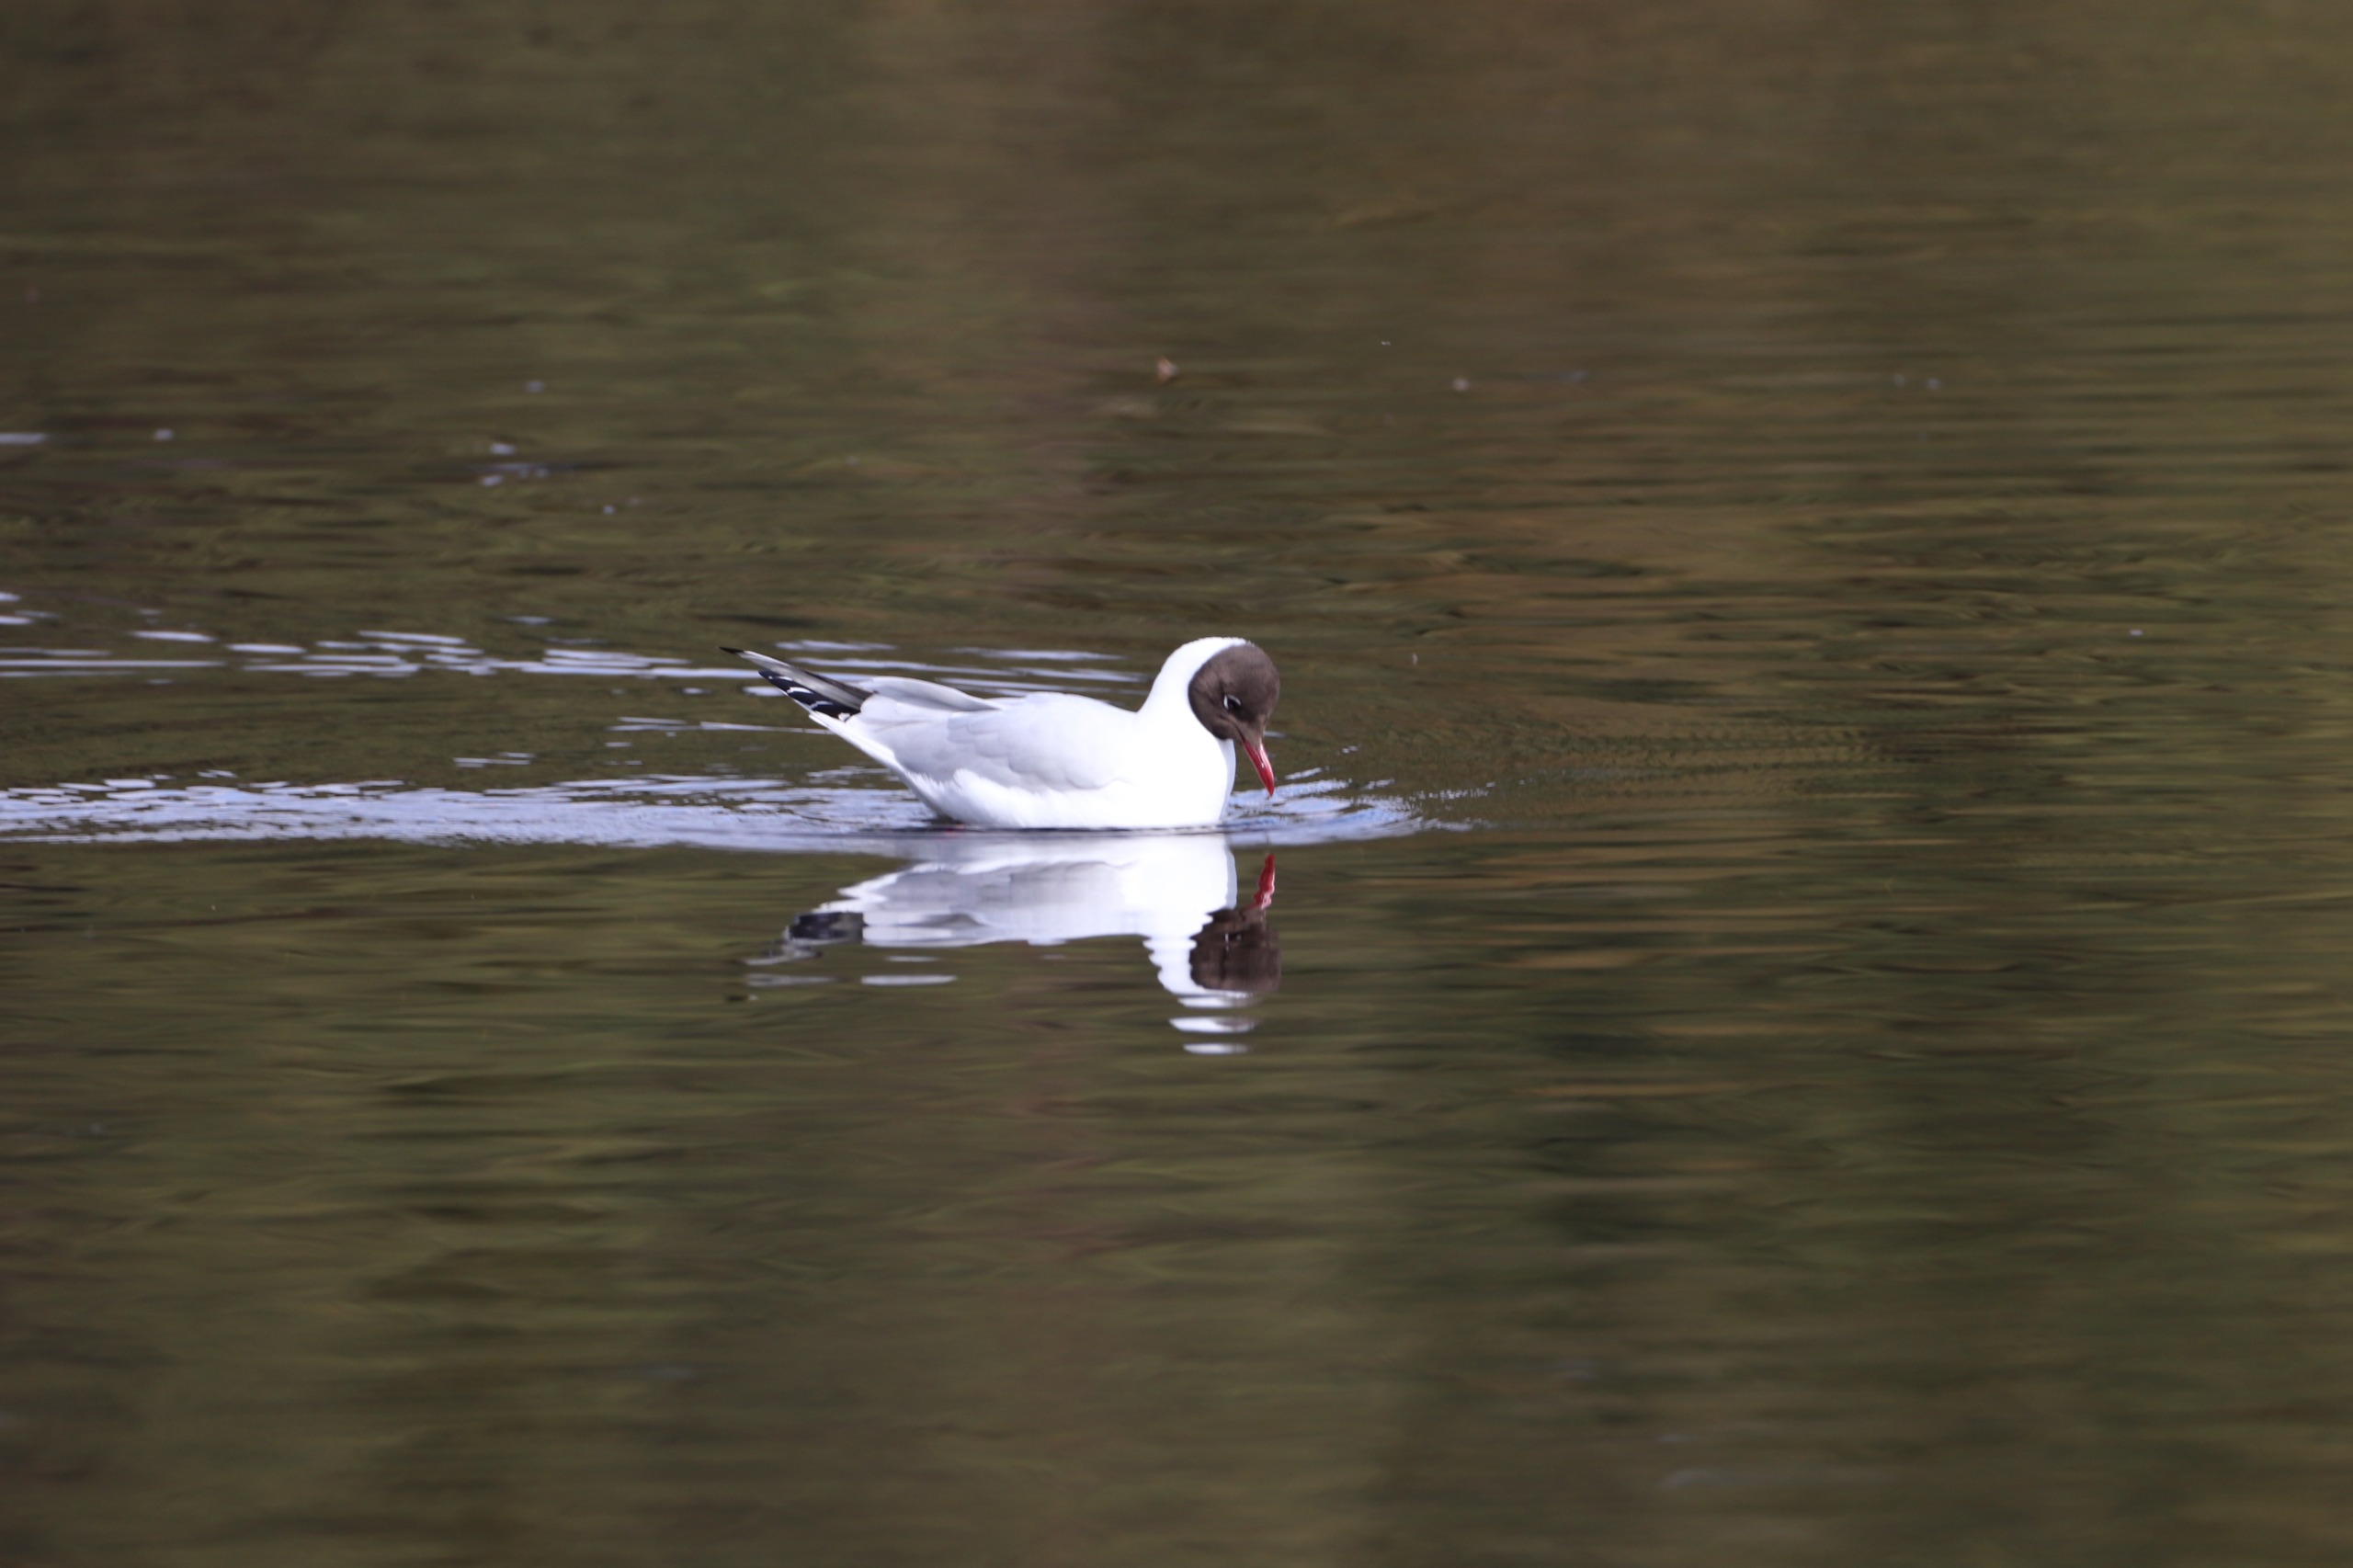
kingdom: Animalia
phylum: Chordata
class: Aves
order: Charadriiformes
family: Laridae
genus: Chroicocephalus
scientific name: Chroicocephalus ridibundus
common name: Hættemåge
